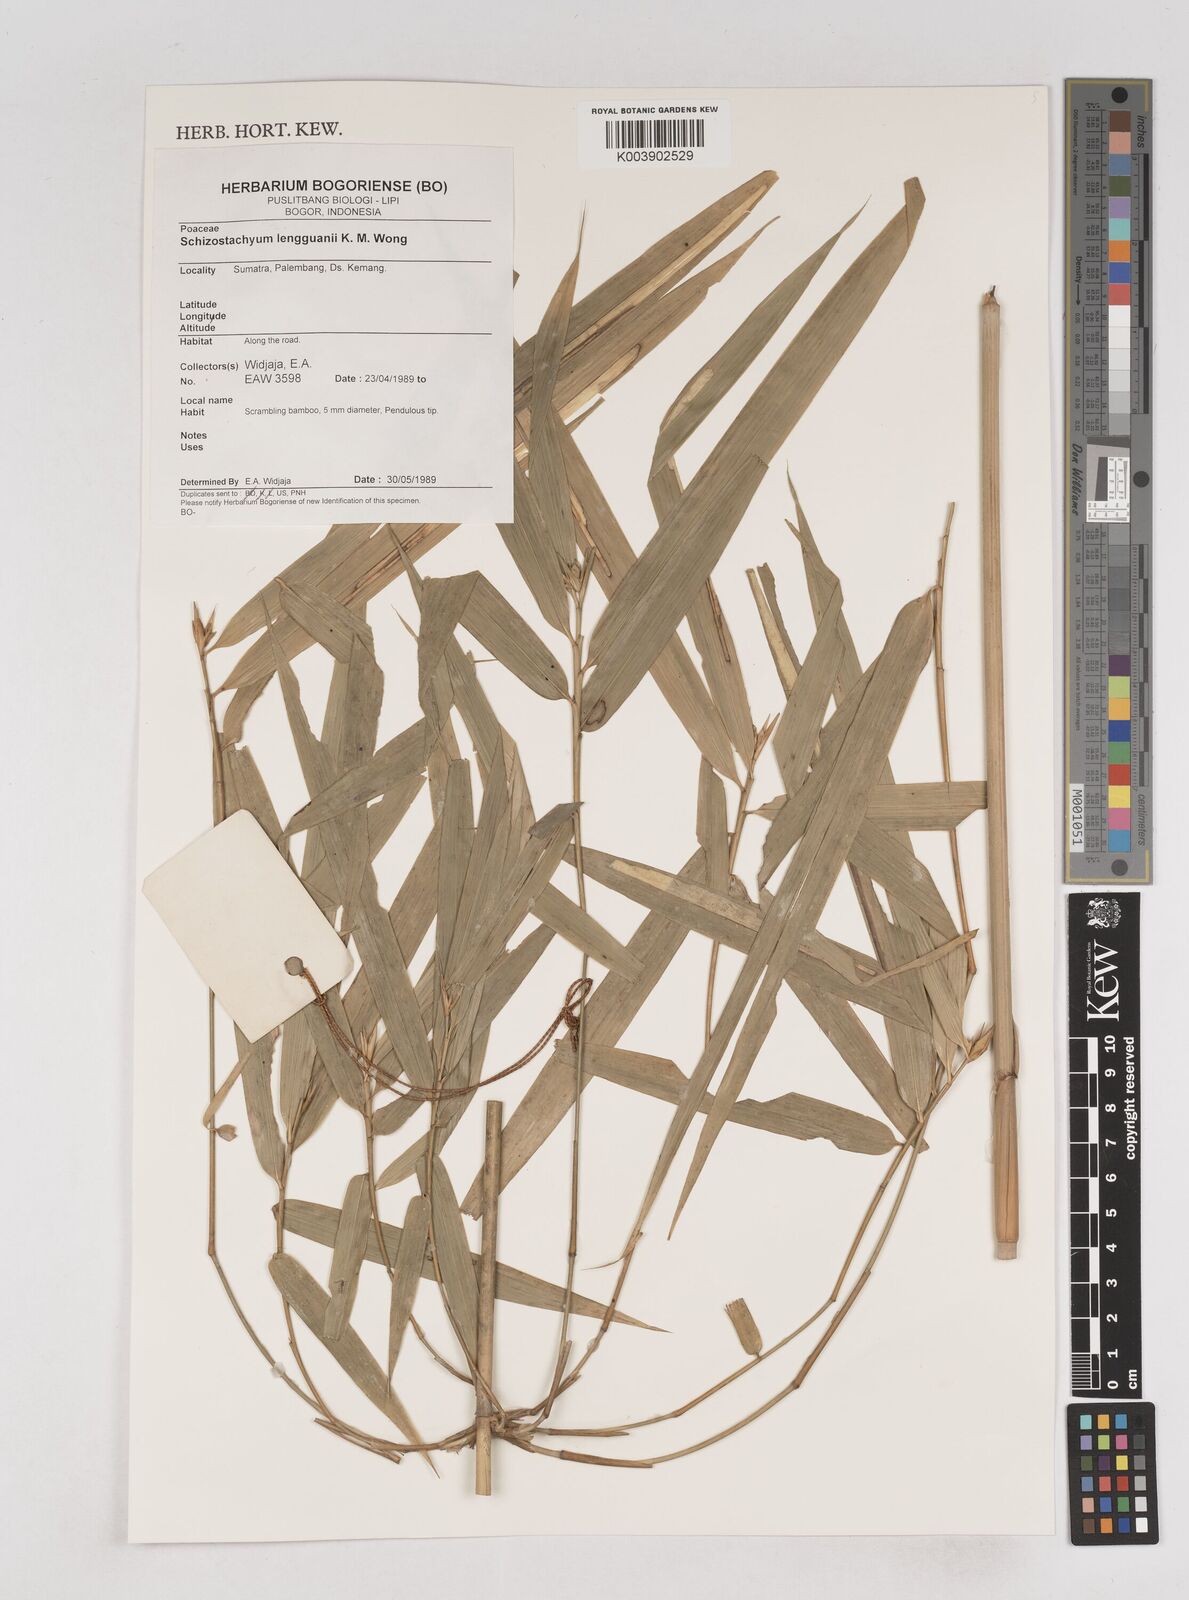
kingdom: Plantae
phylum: Tracheophyta
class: Liliopsida
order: Poales
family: Poaceae
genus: Schizostachyum
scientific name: Schizostachyum lengguanii
